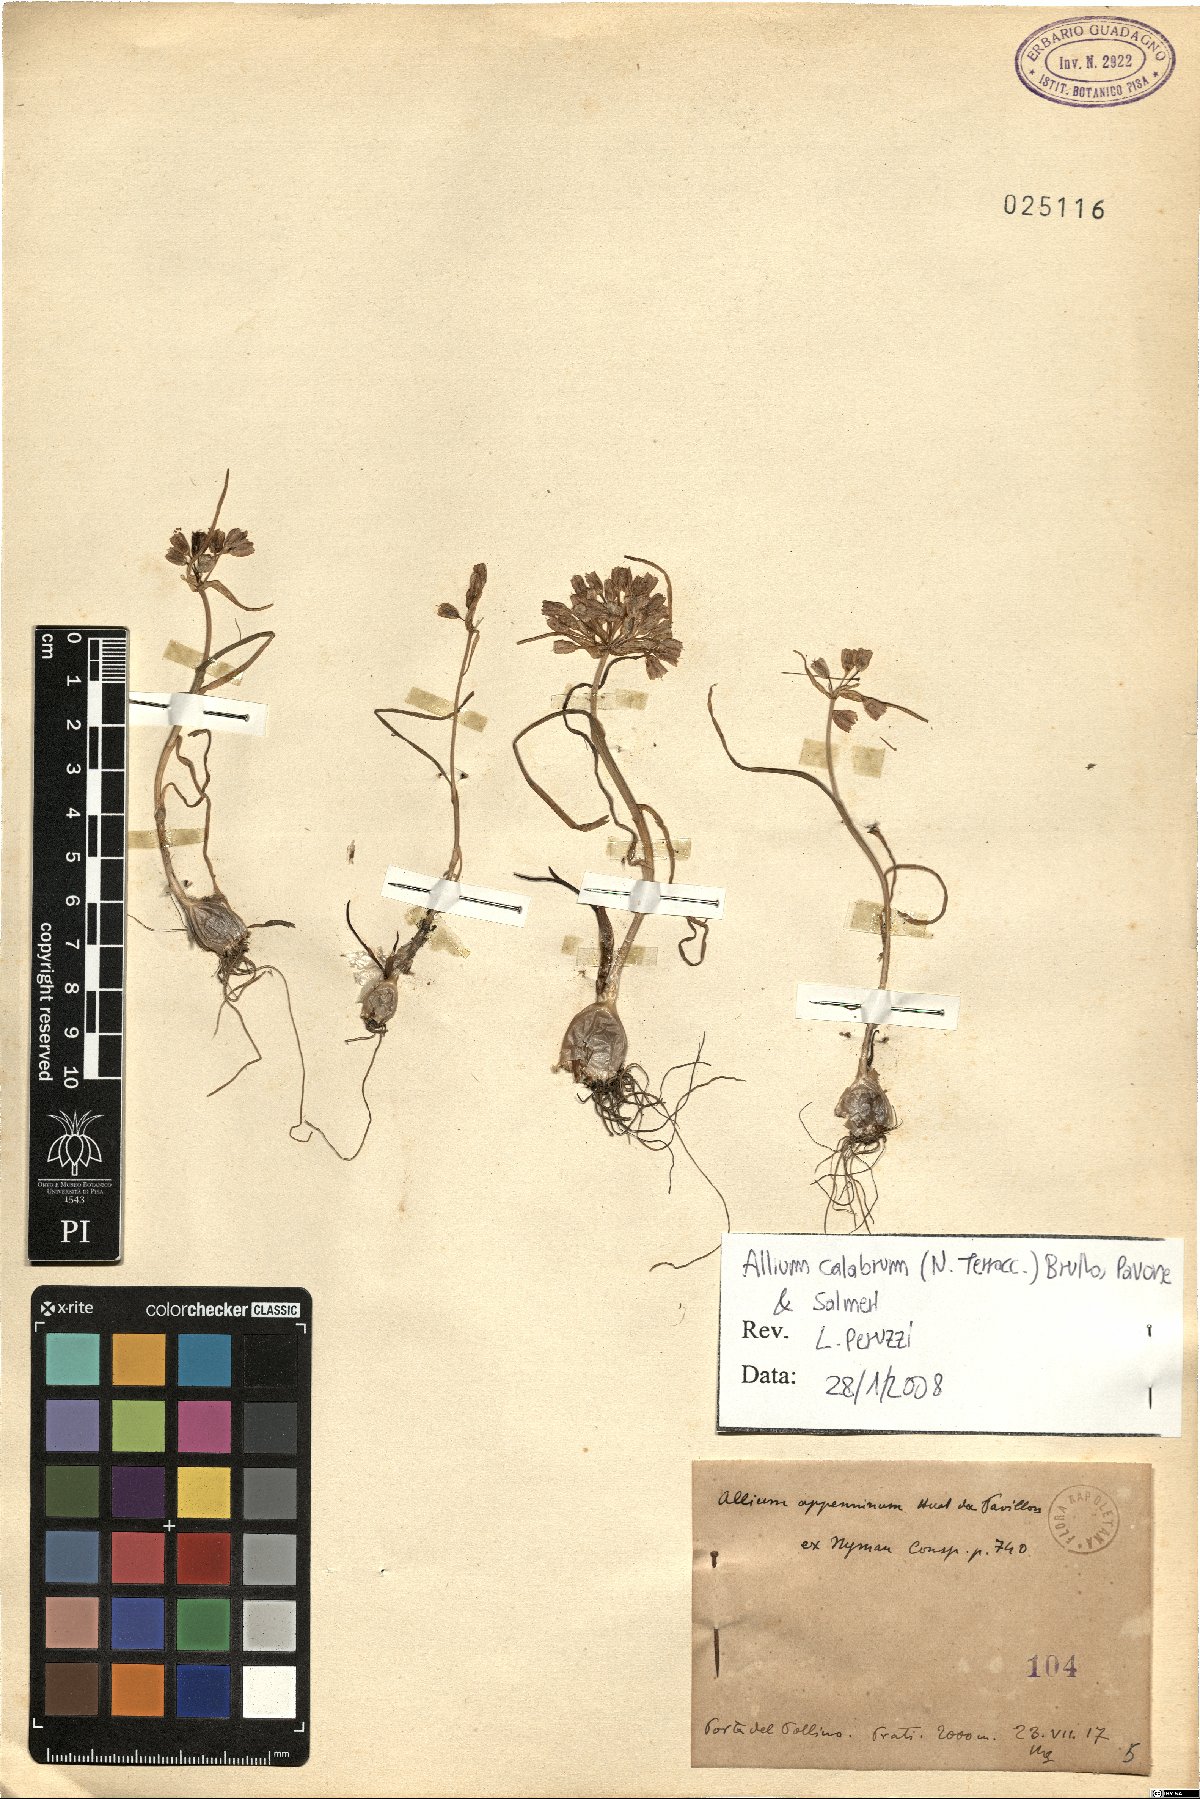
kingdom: Plantae
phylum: Tracheophyta
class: Liliopsida
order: Asparagales
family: Amaryllidaceae
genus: Allium
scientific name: Allium calabrum
